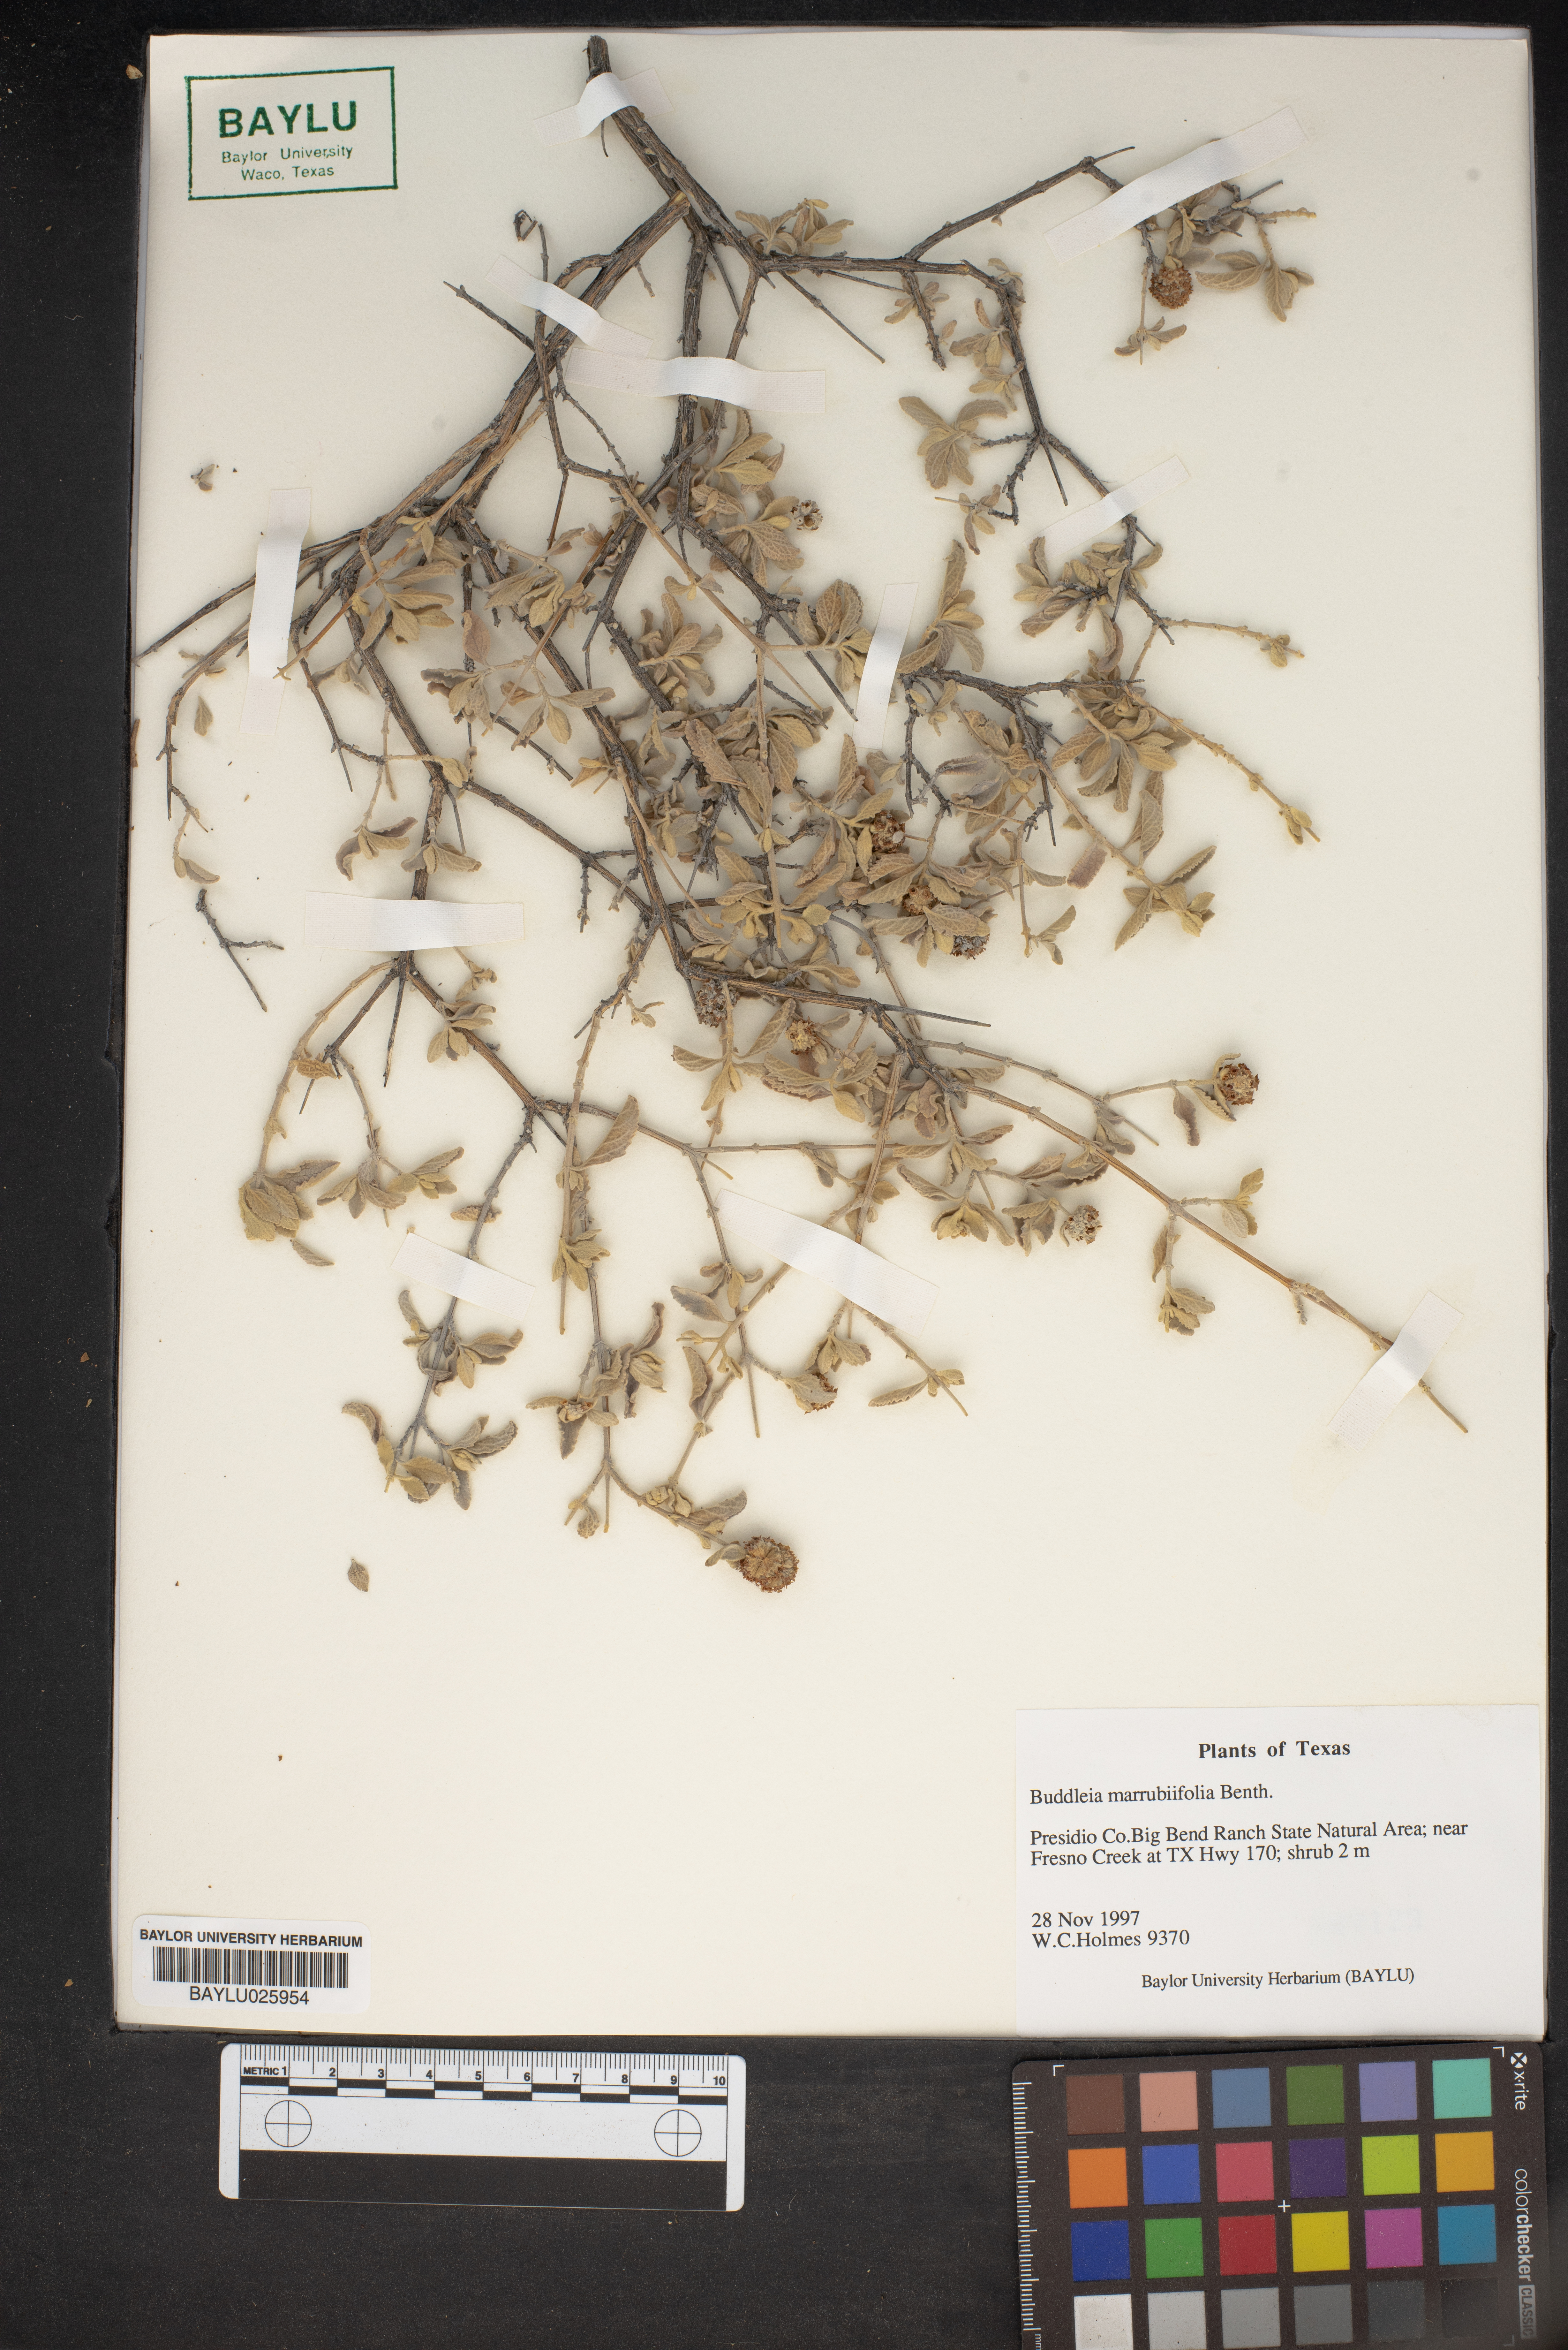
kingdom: Plantae
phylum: Tracheophyta
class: Magnoliopsida
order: Lamiales
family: Scrophulariaceae
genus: Buddleja
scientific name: Buddleja marrubiifolia
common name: Woolly butterfly-bush
